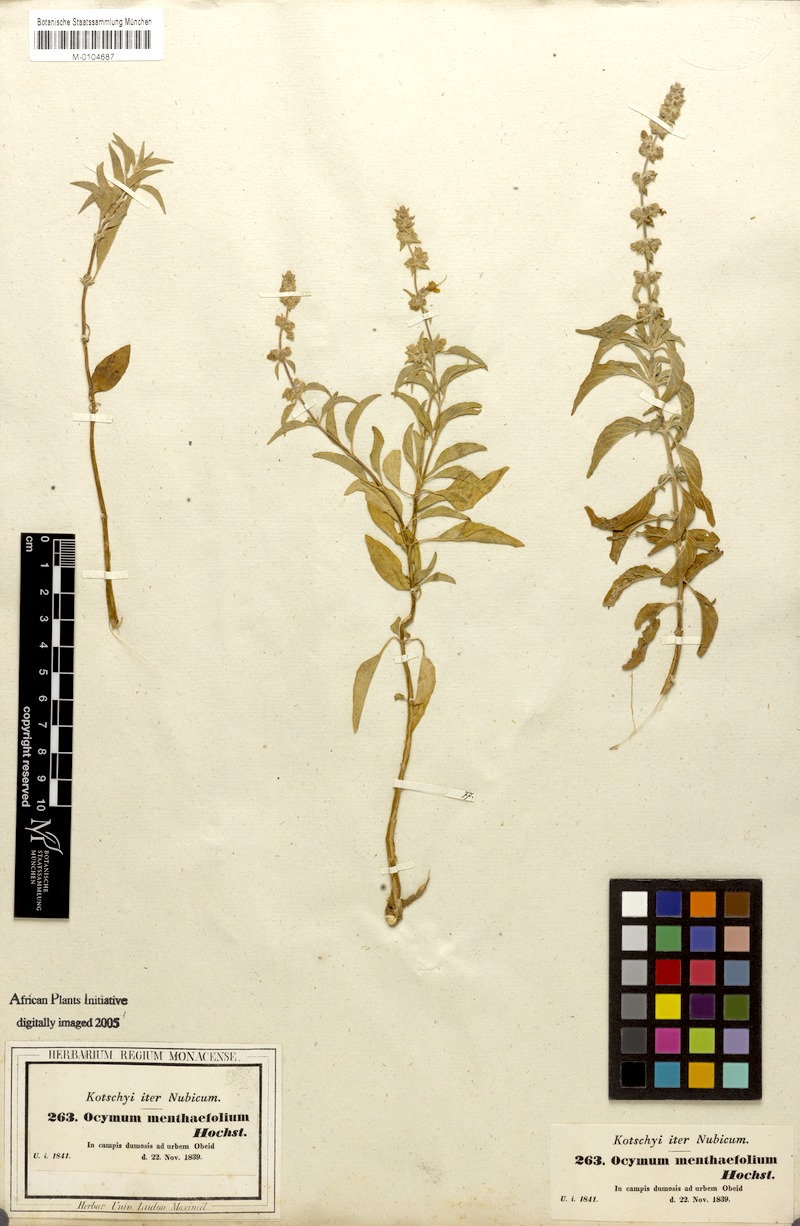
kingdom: Plantae
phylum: Tracheophyta
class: Magnoliopsida
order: Lamiales
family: Lamiaceae
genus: Ocimum
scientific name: Ocimum forskoelei
